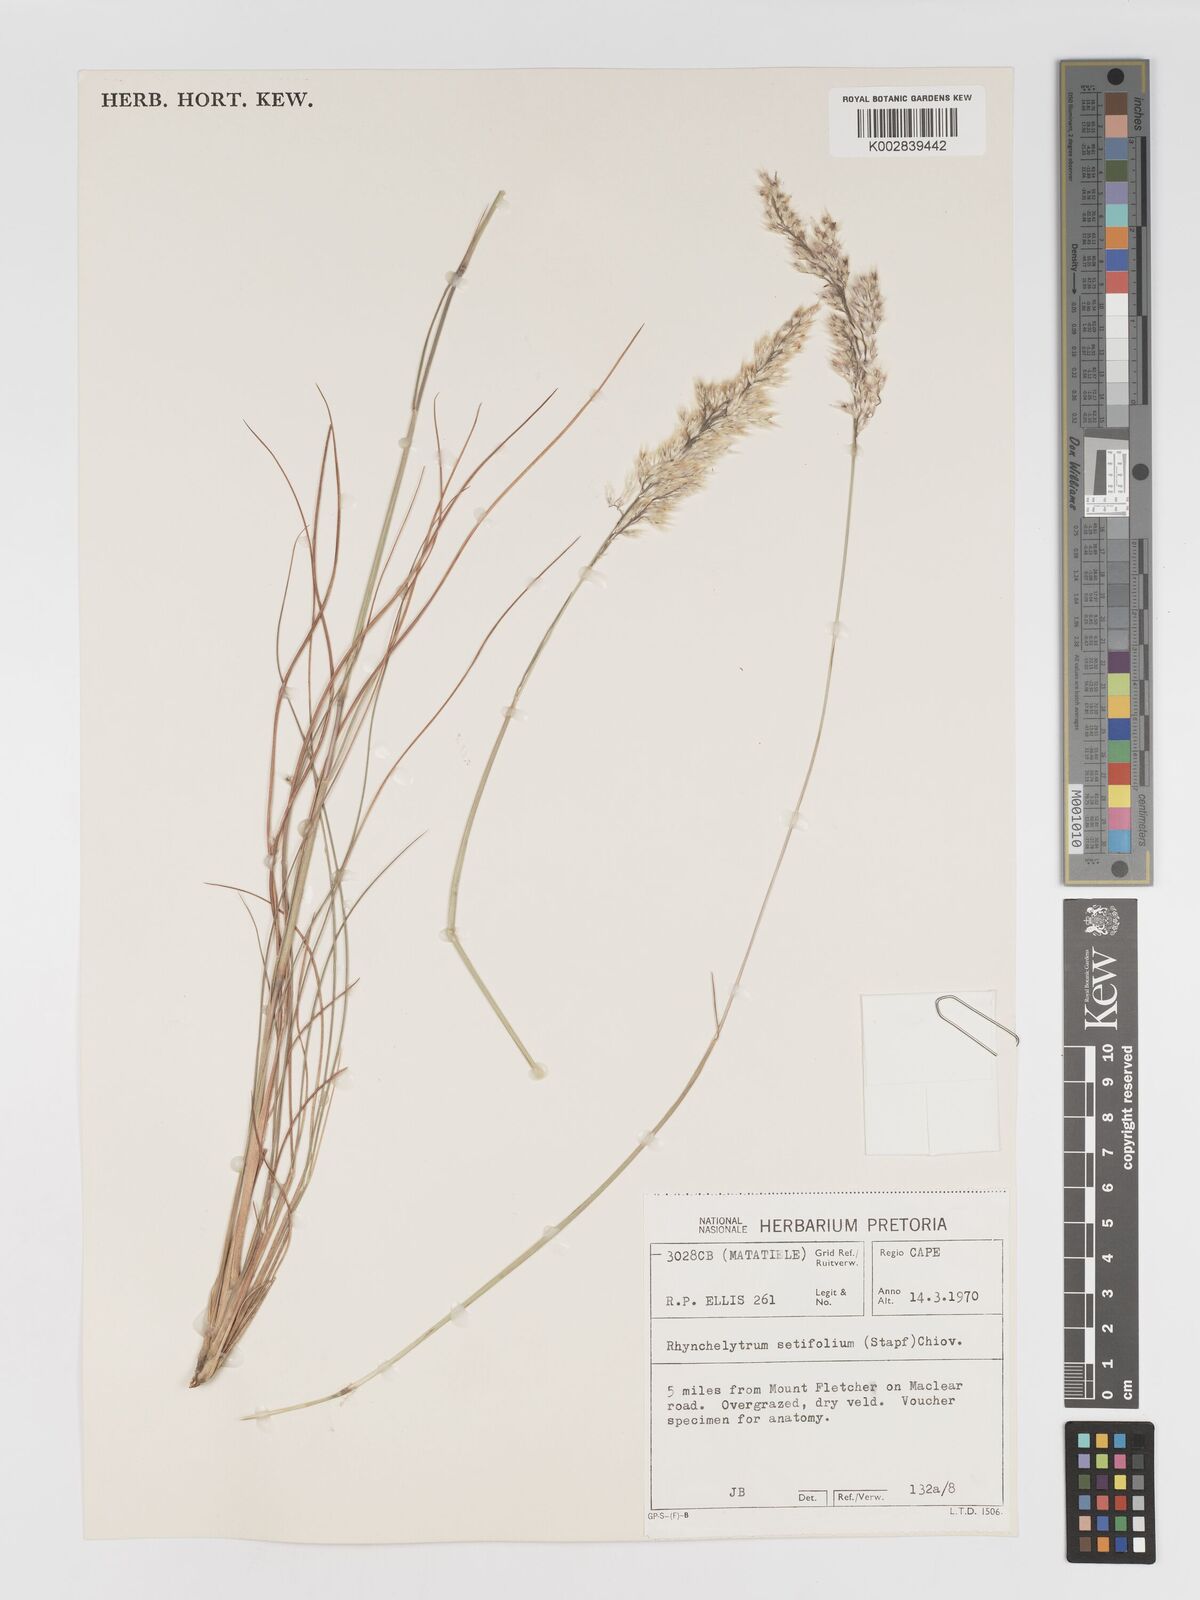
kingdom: Plantae
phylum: Tracheophyta
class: Liliopsida
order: Poales
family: Poaceae
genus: Melinis
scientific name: Melinis nerviglumis
